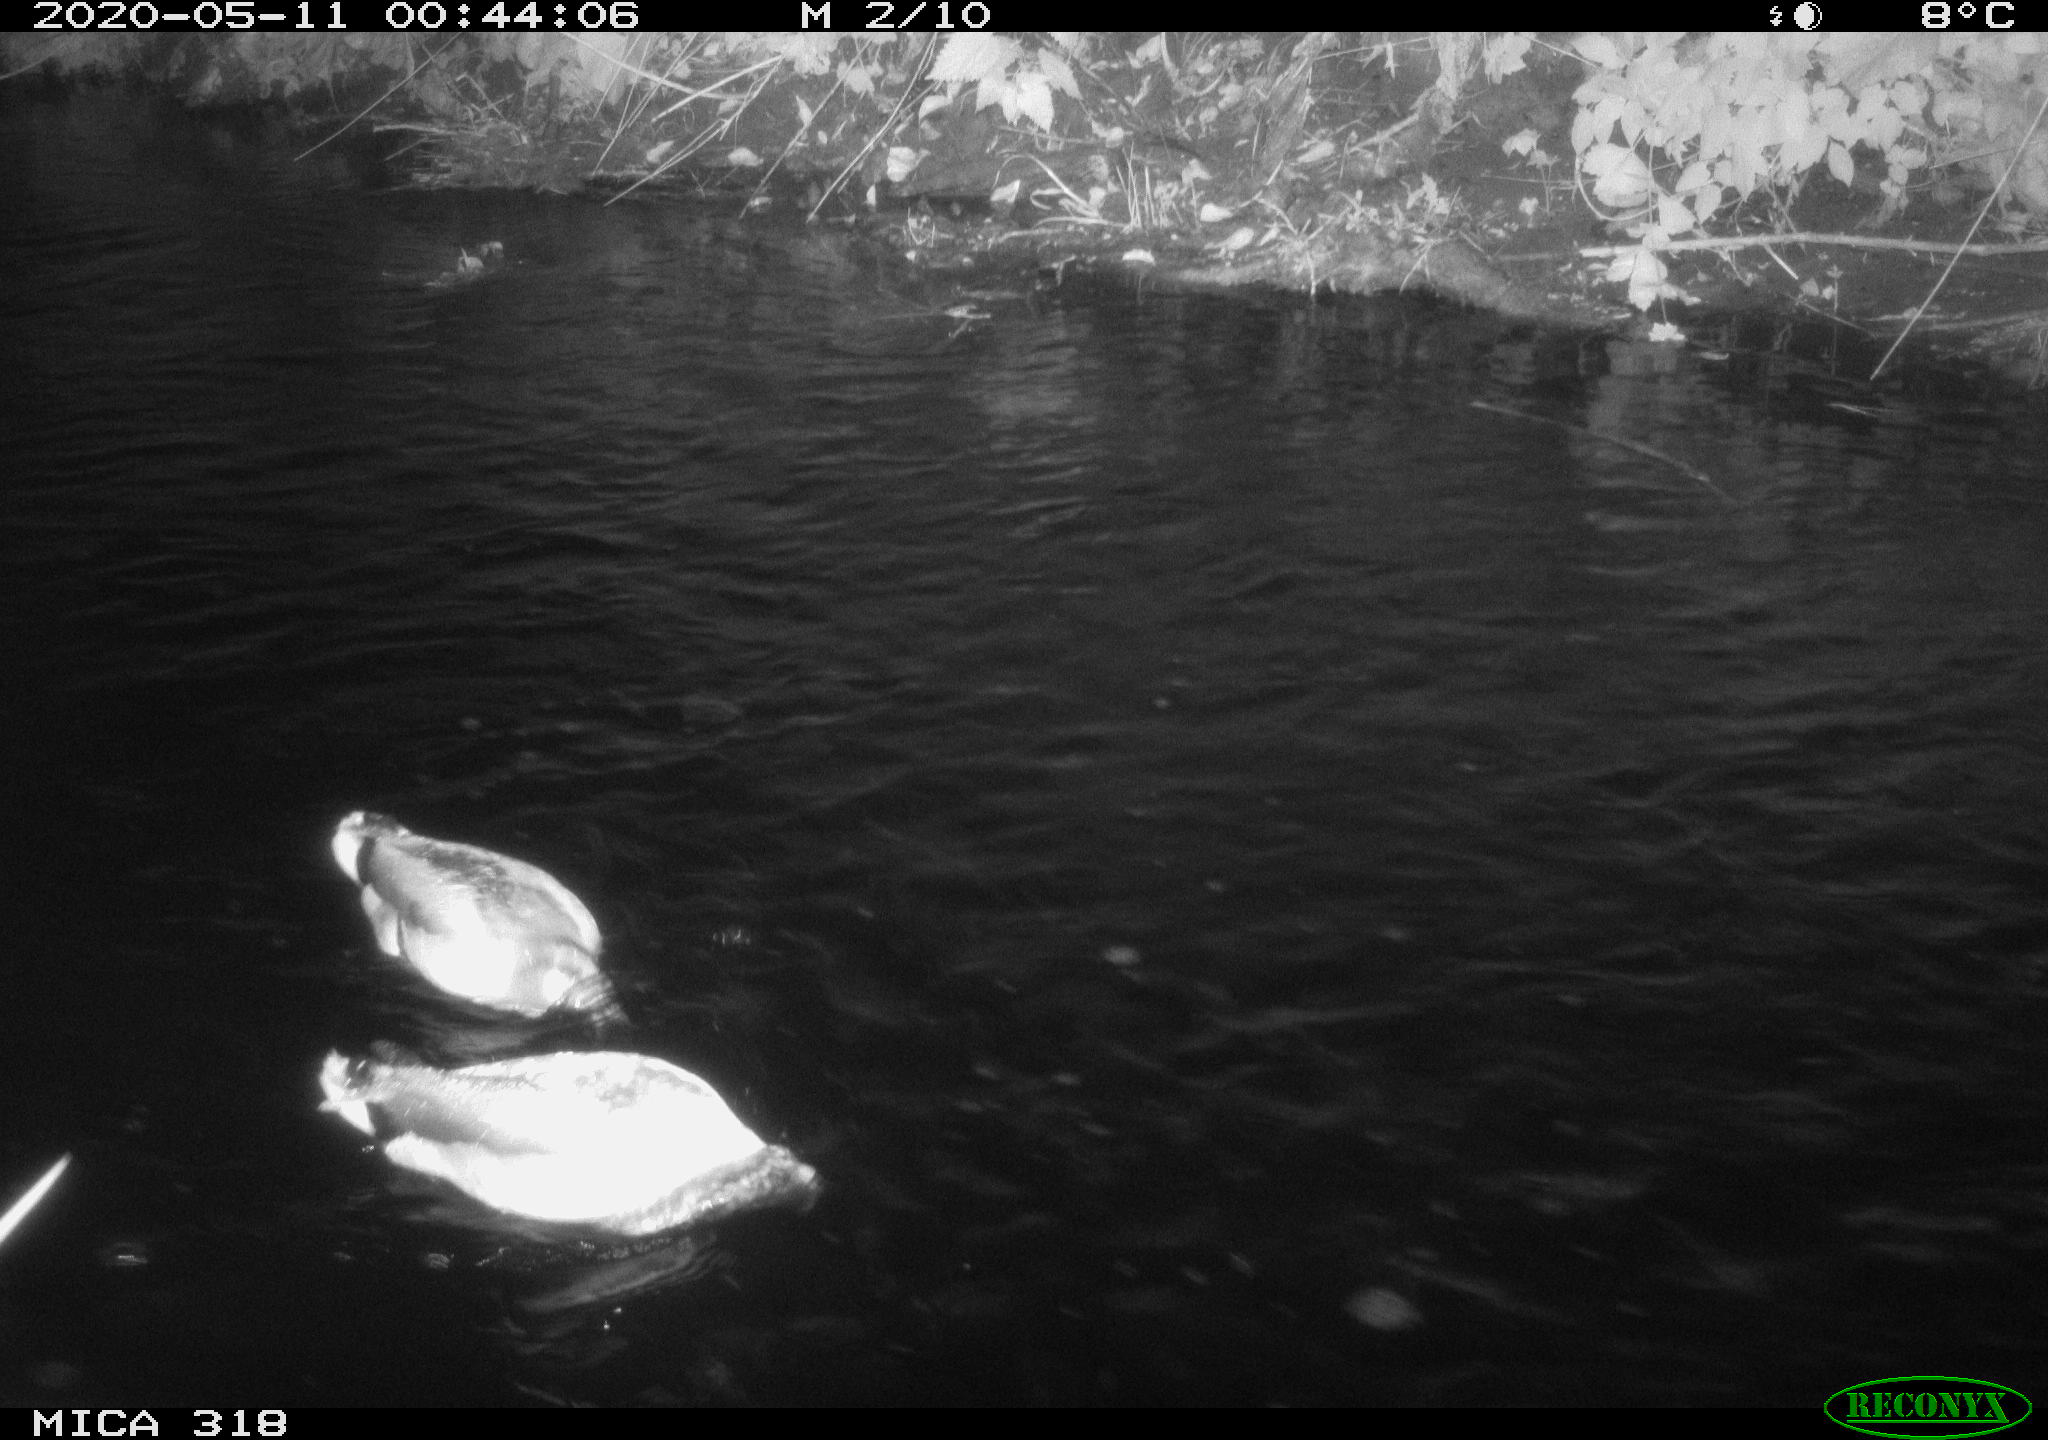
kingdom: Animalia
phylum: Chordata
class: Aves
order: Anseriformes
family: Anatidae
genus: Anas
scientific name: Anas platyrhynchos
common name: Mallard
